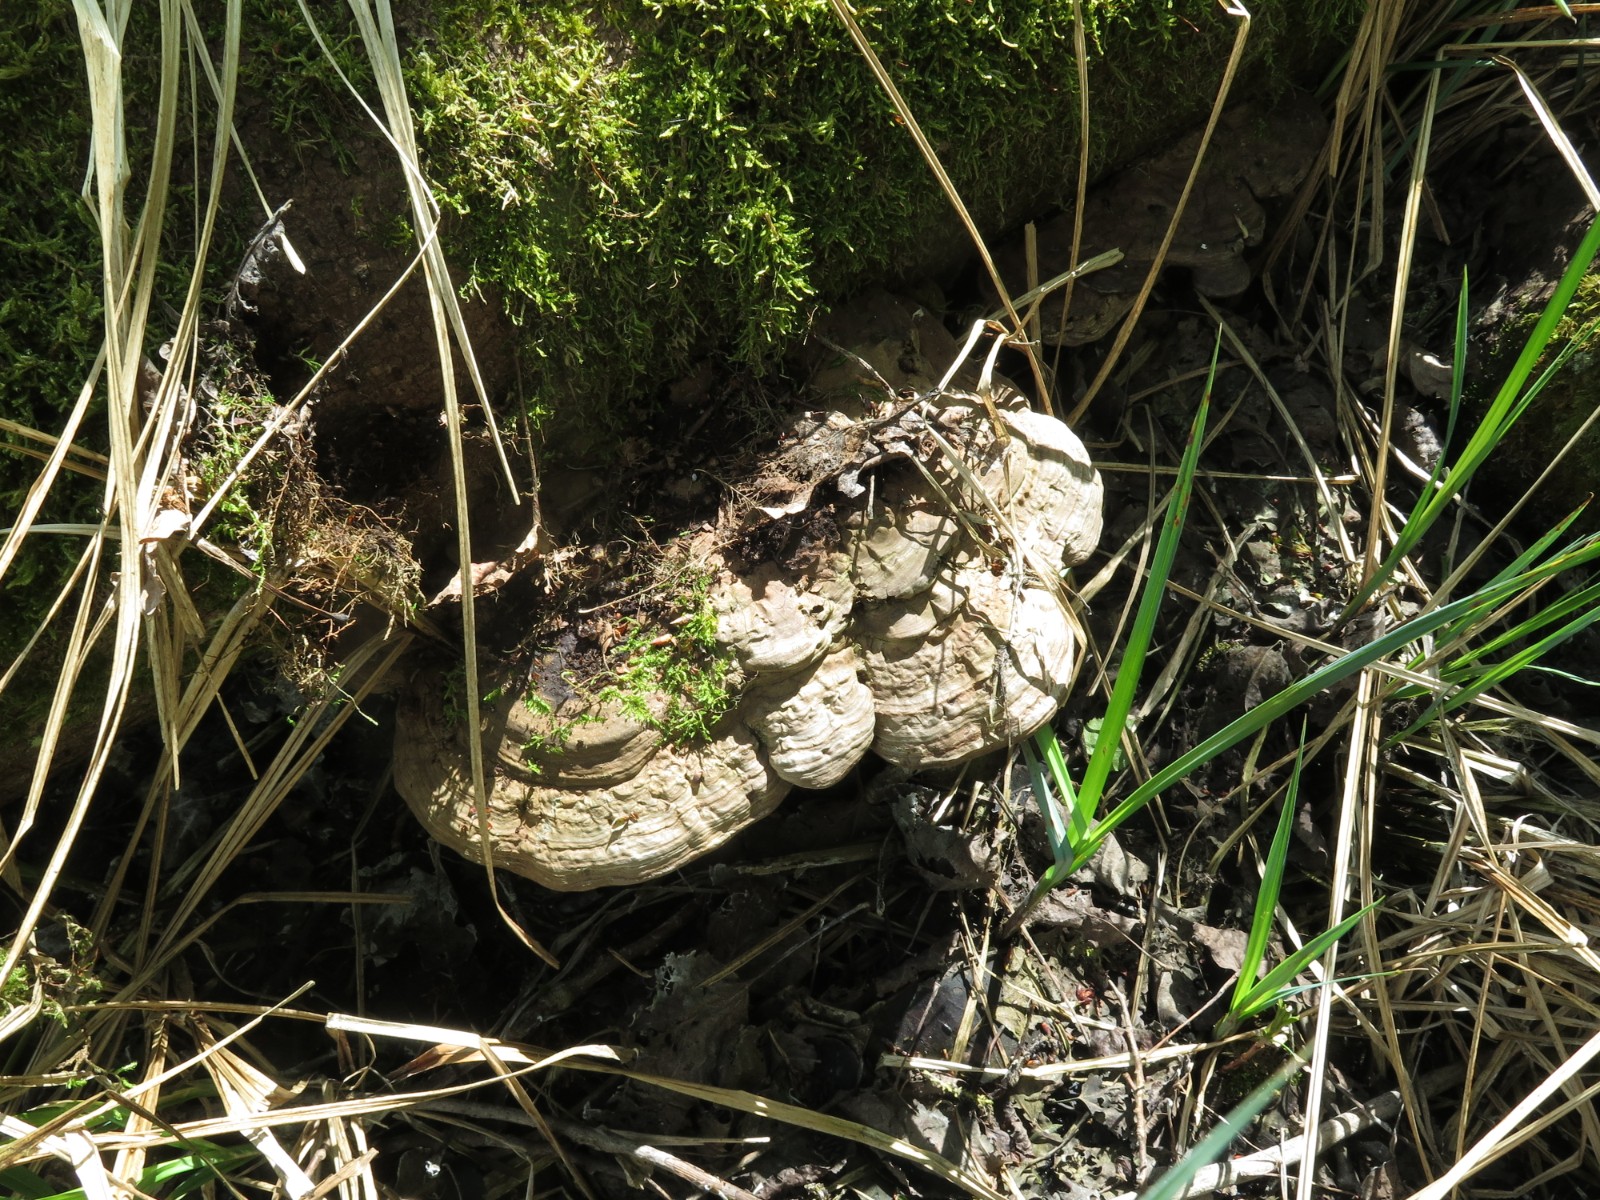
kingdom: Fungi
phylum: Basidiomycota
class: Agaricomycetes
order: Polyporales
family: Polyporaceae
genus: Ganoderma
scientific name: Ganoderma applanatum
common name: flad lakporesvamp
